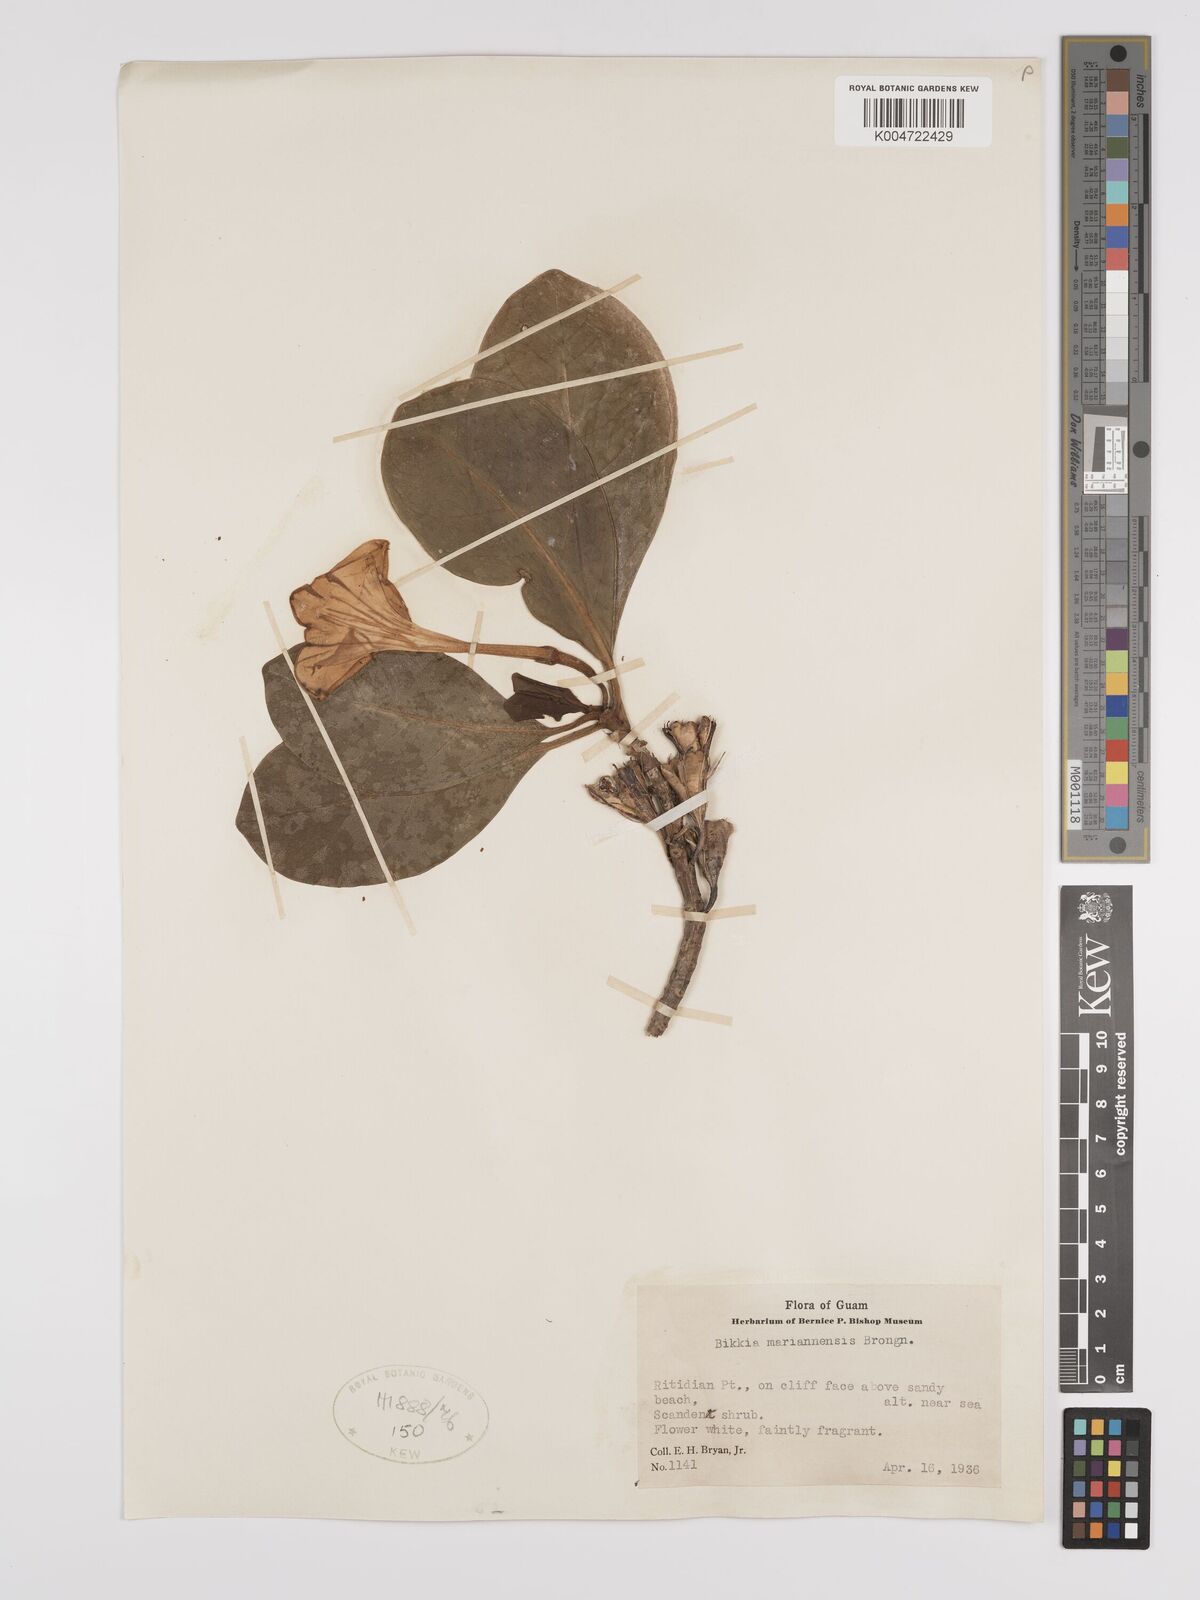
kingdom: Plantae
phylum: Tracheophyta
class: Magnoliopsida
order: Gentianales
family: Rubiaceae
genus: Bikkia
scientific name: Bikkia
